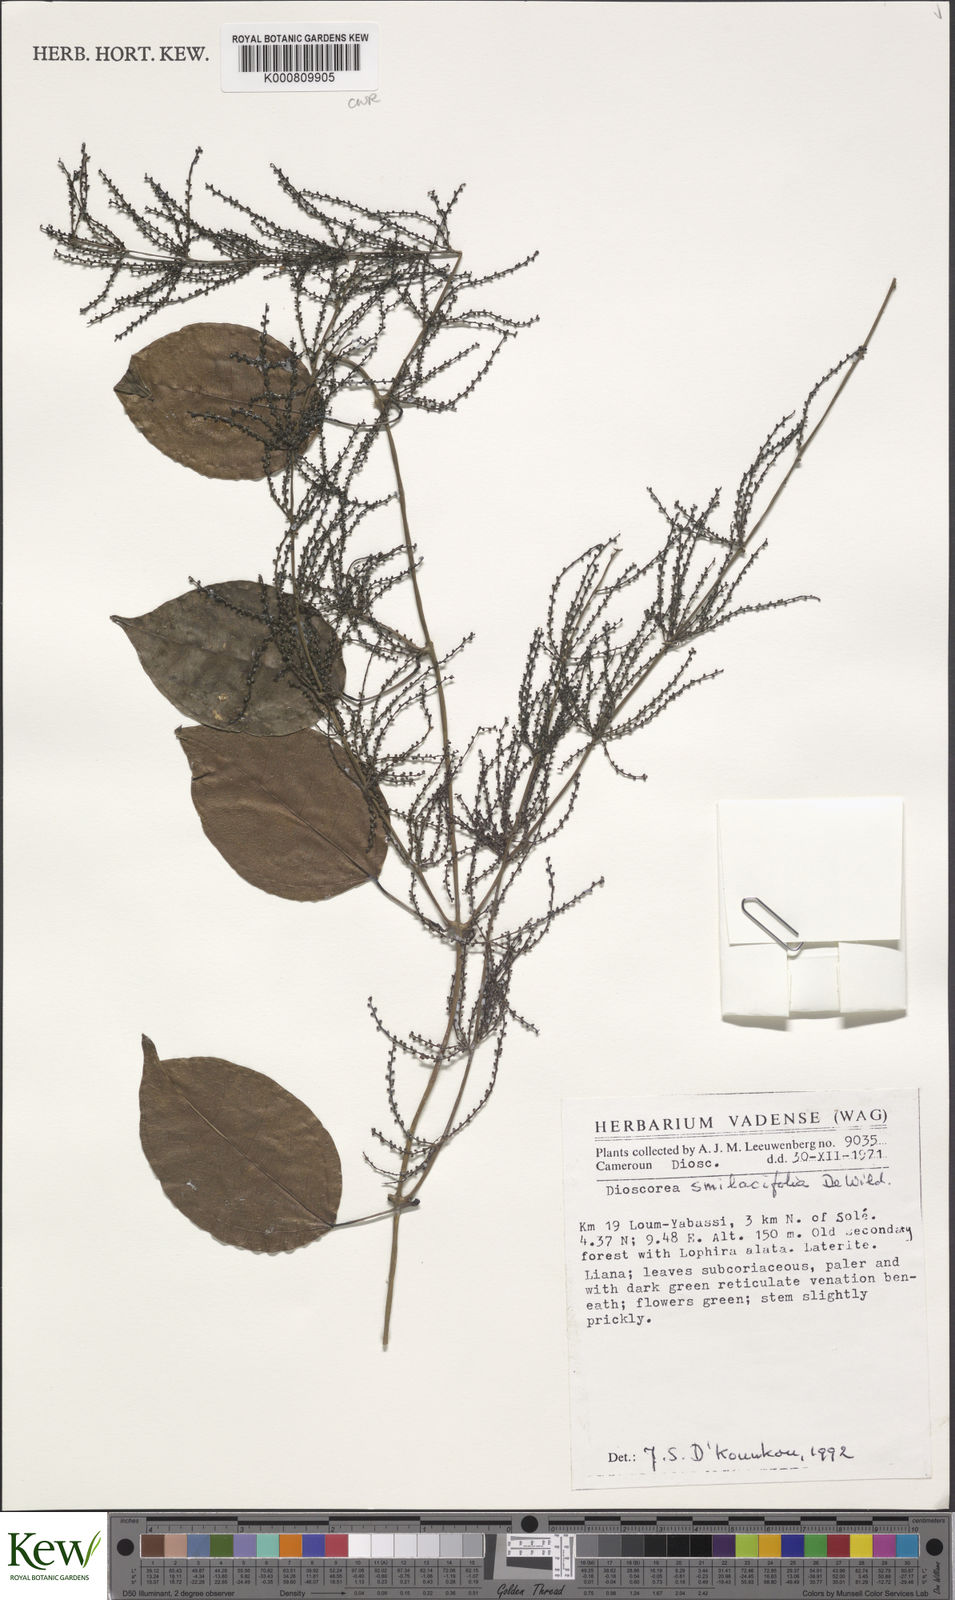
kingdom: Plantae
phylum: Tracheophyta
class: Liliopsida
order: Dioscoreales
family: Dioscoreaceae
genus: Dioscorea
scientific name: Dioscorea smilacifolia
